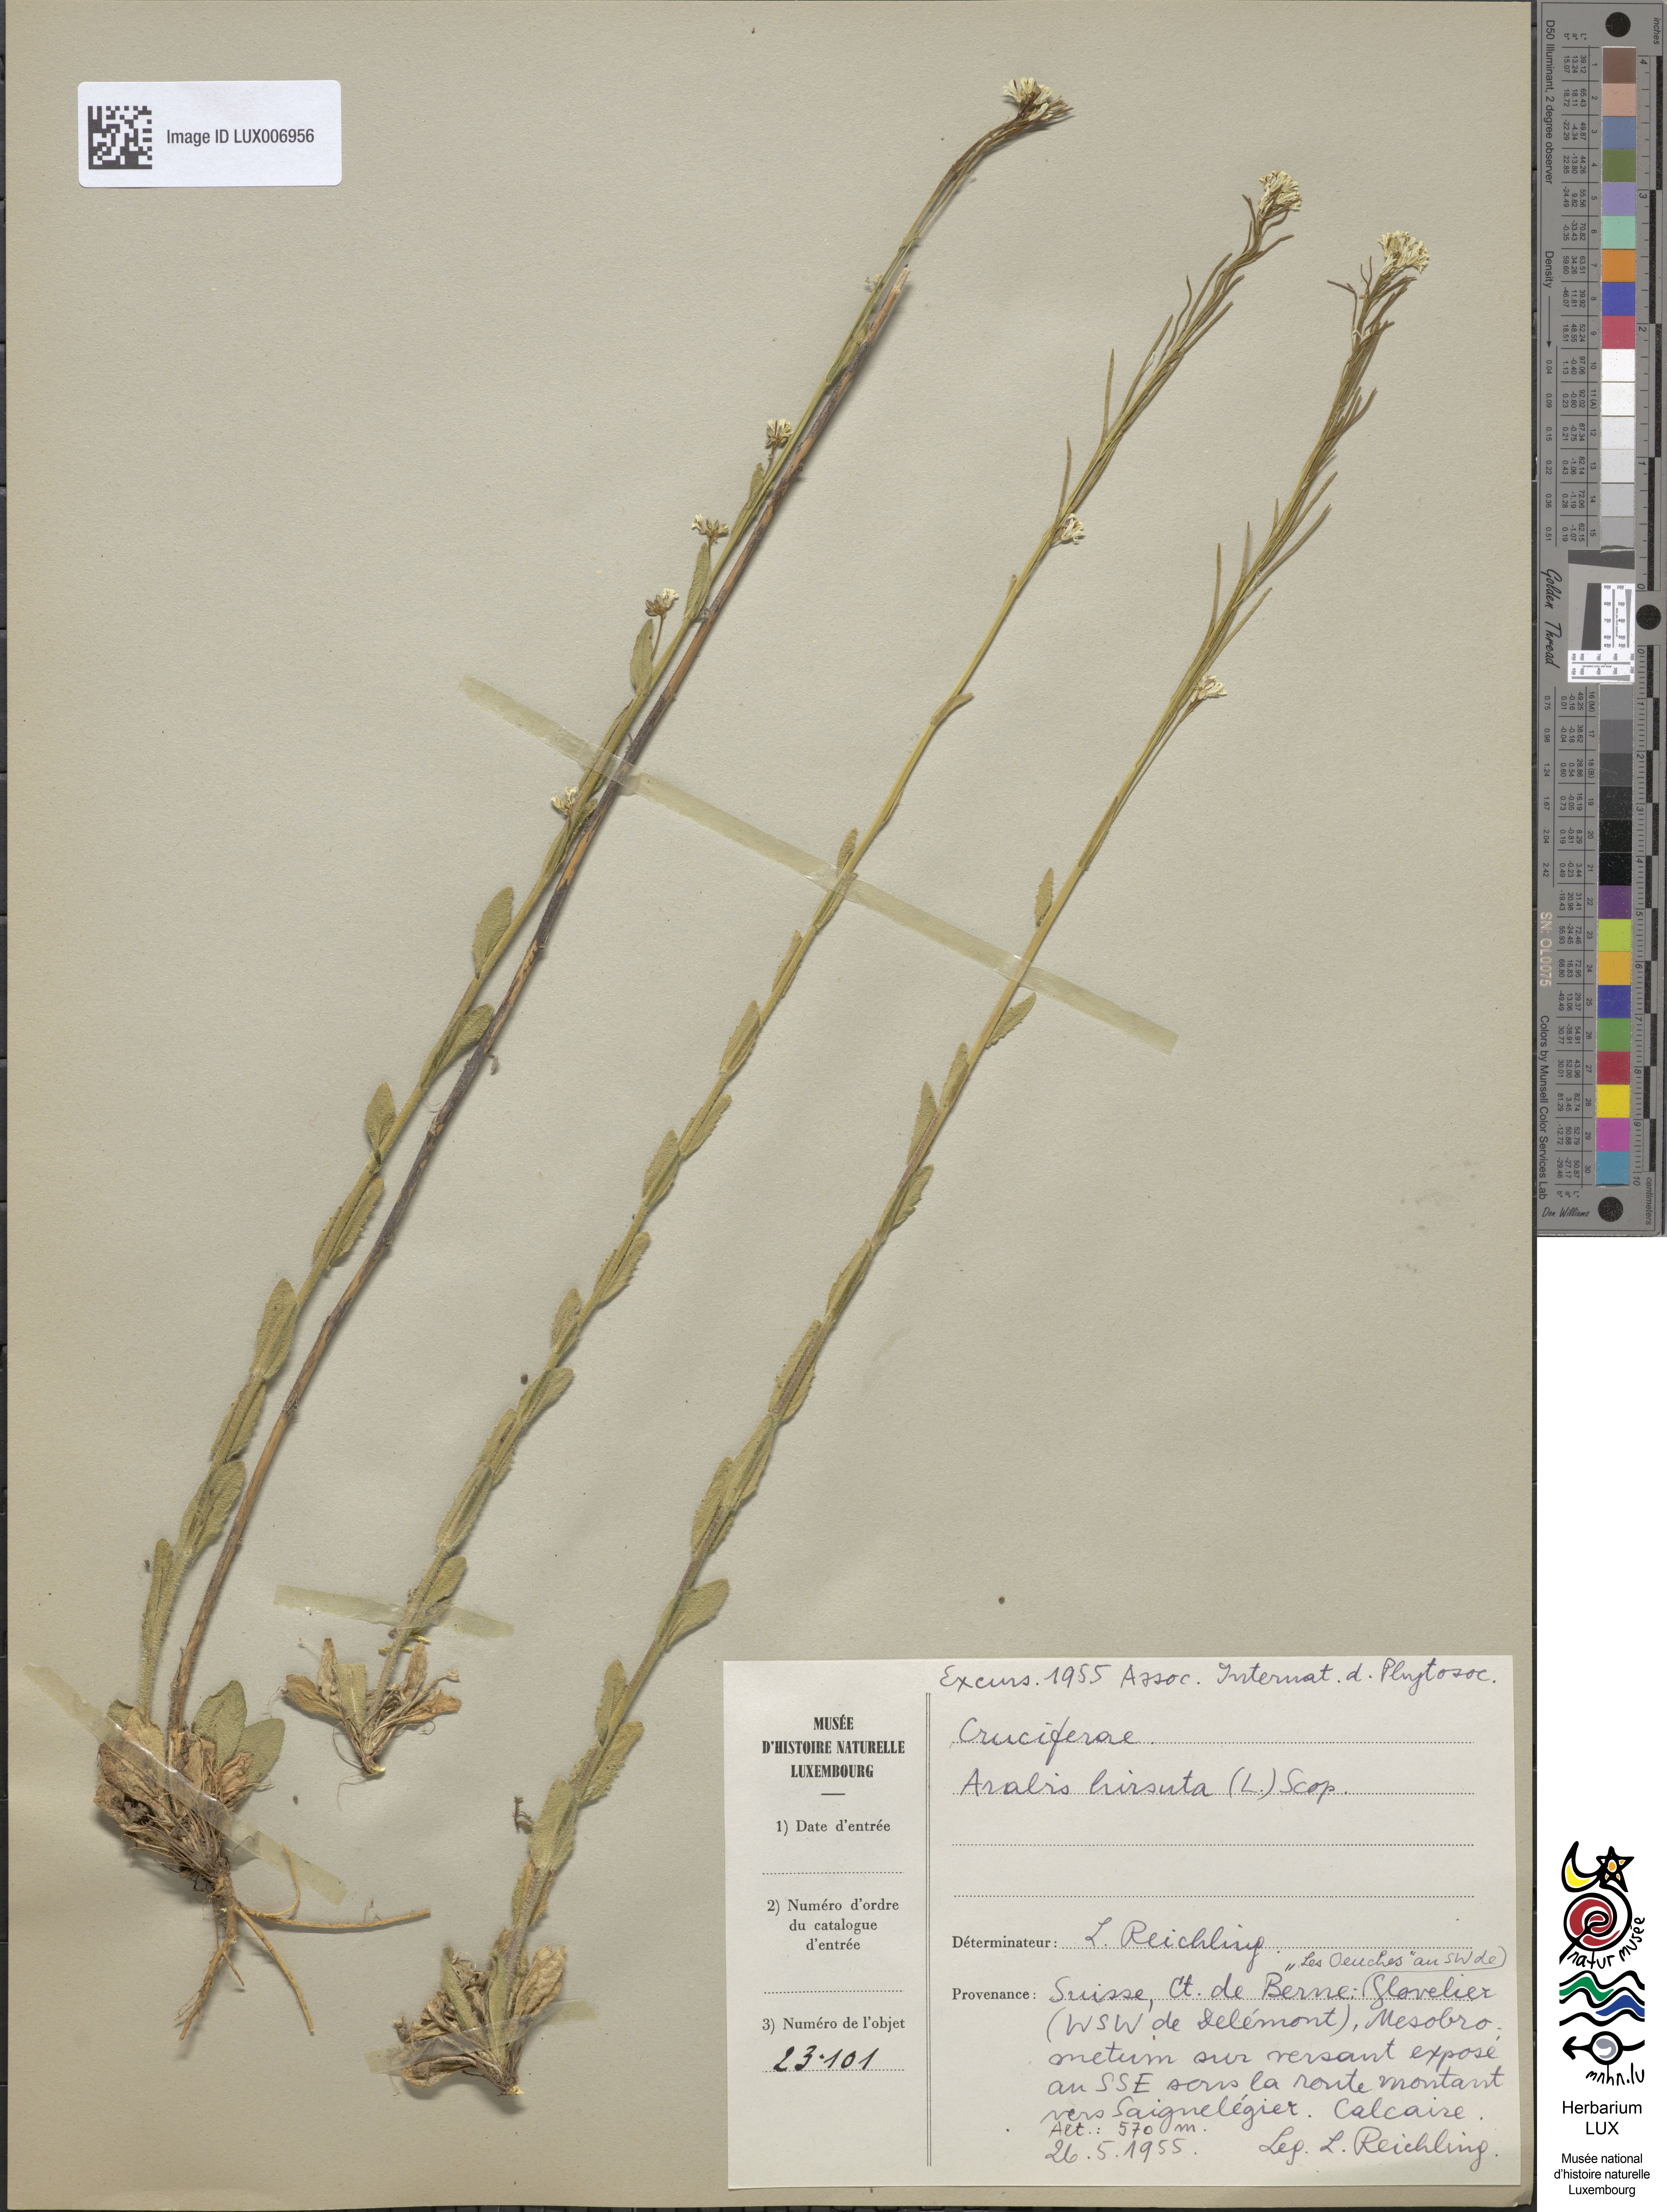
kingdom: Plantae
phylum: Tracheophyta
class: Magnoliopsida
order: Brassicales
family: Brassicaceae
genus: Arabis
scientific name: Arabis hirsuta
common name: Hairy rock-cress
